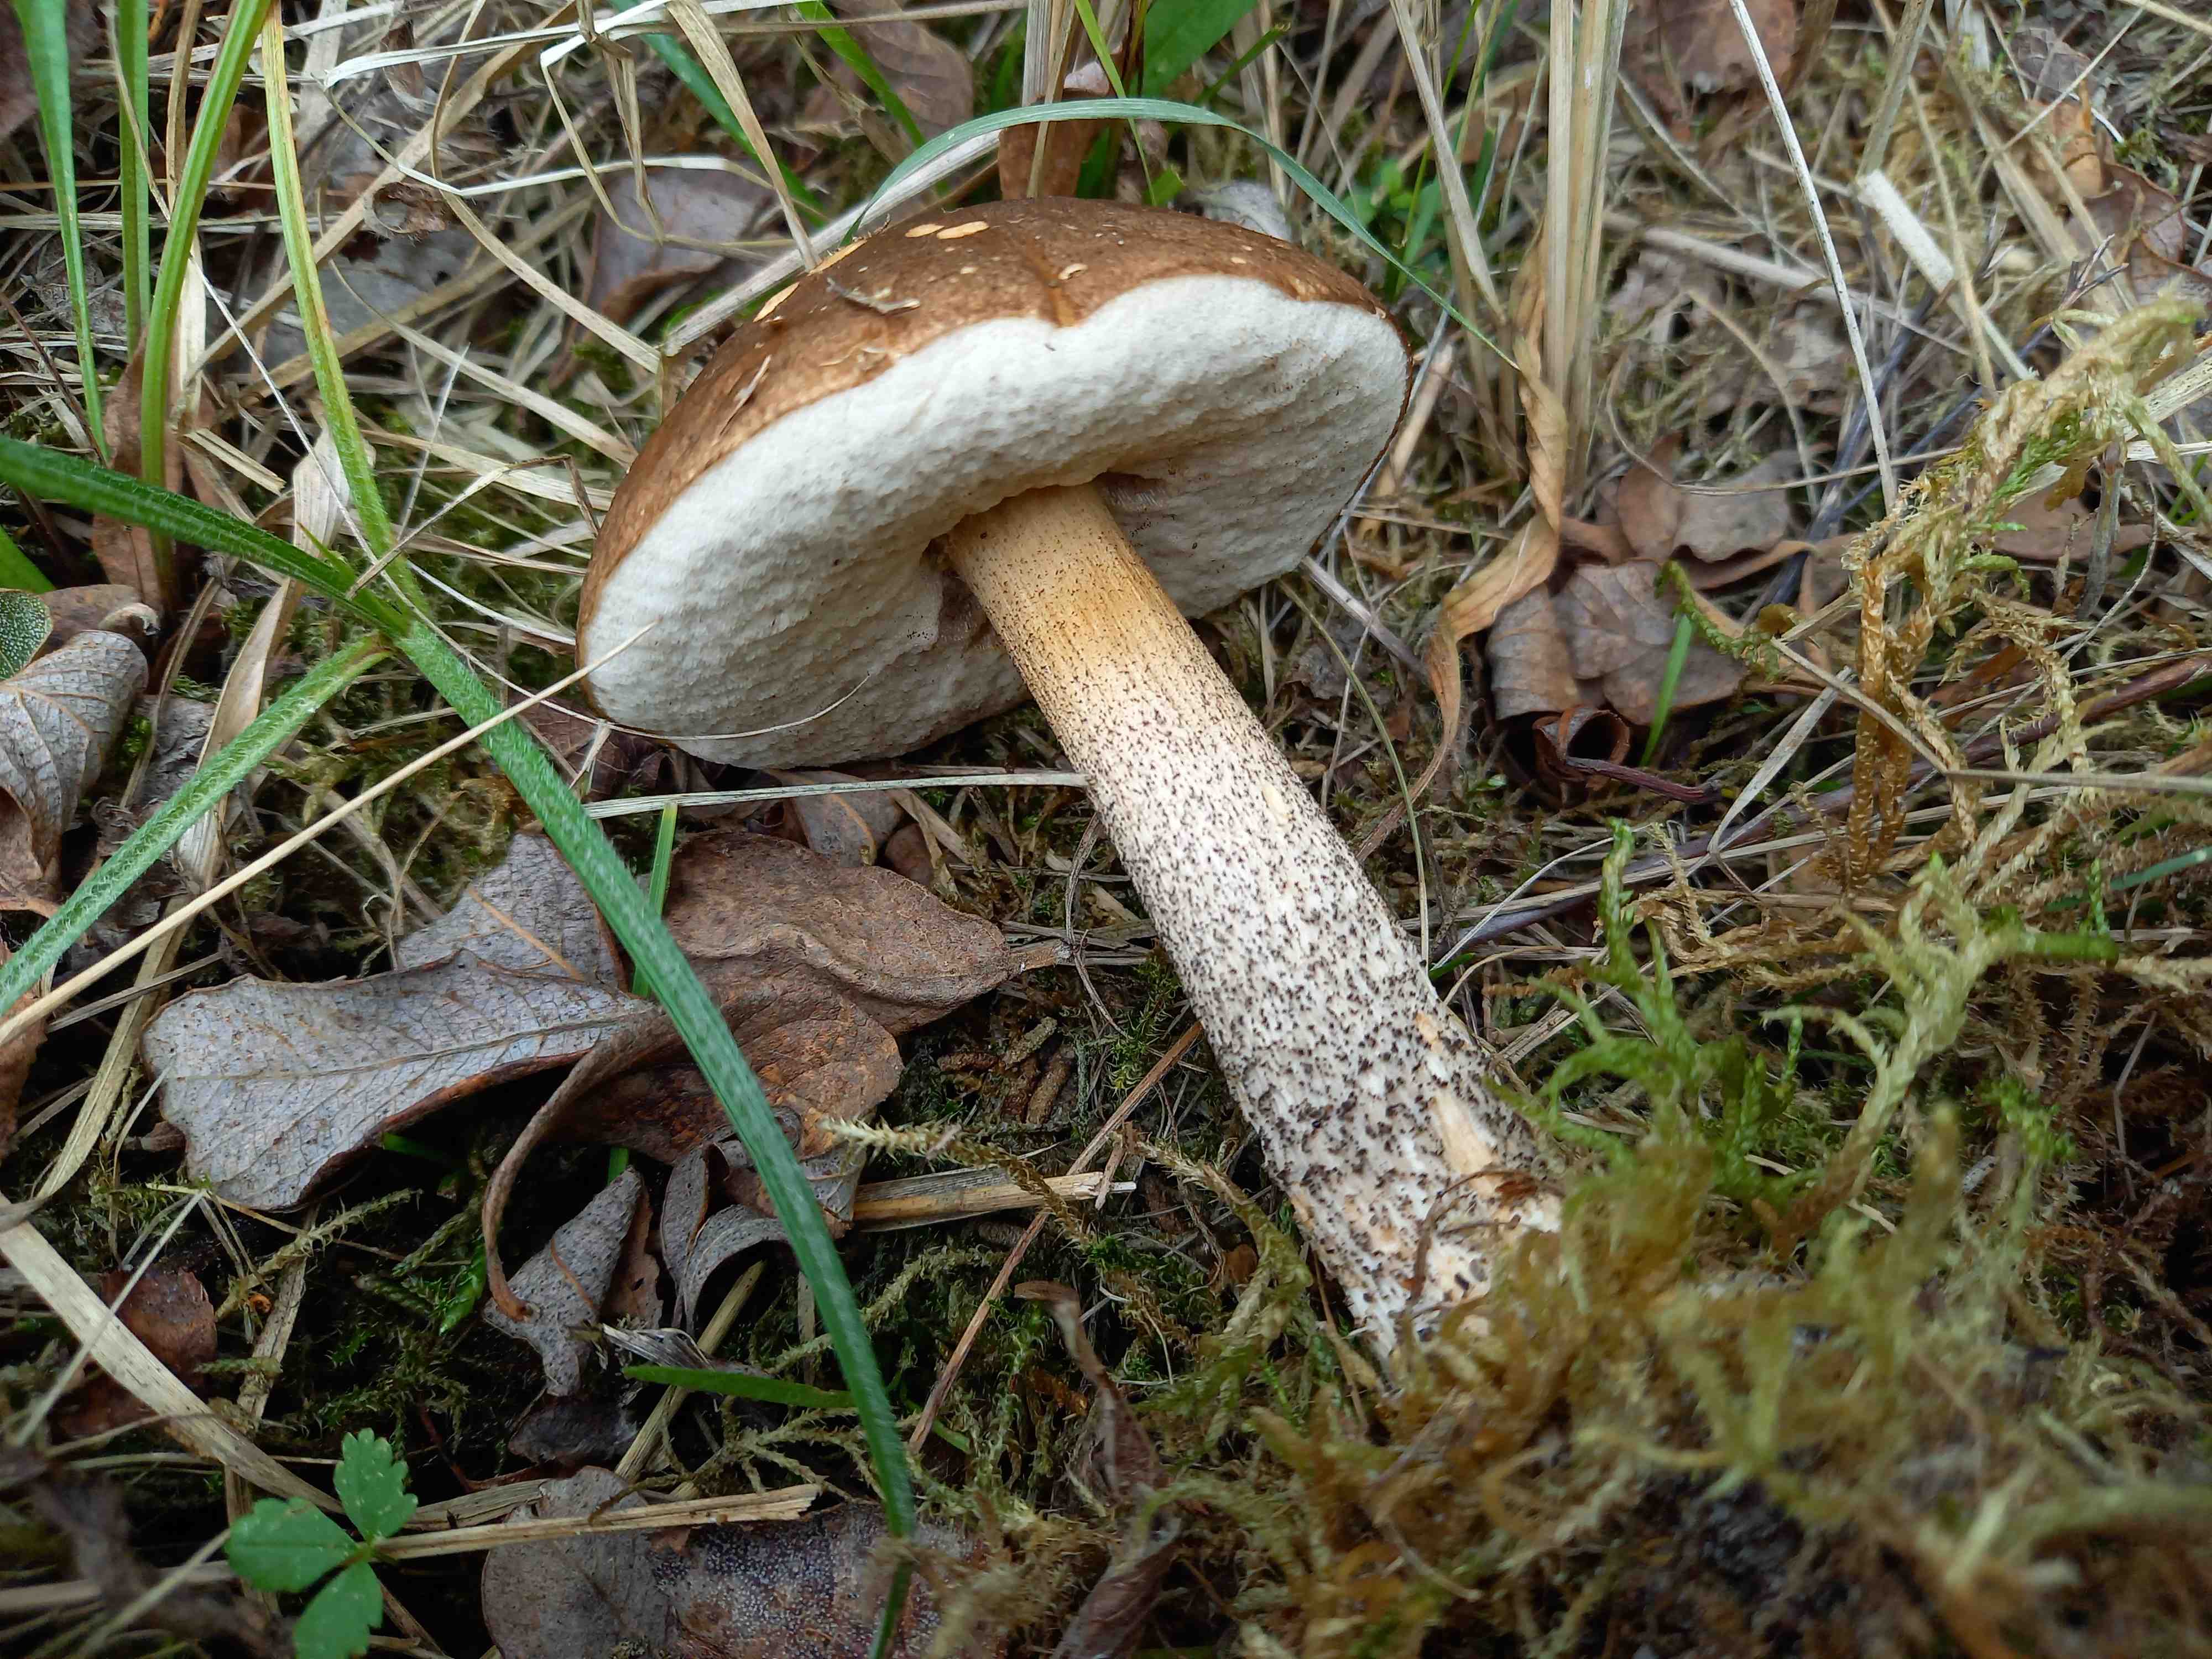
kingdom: Fungi
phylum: Basidiomycota
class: Agaricomycetes
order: Boletales
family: Boletaceae
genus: Leccinum
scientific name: Leccinum scabrum
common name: brun skælrørhat
